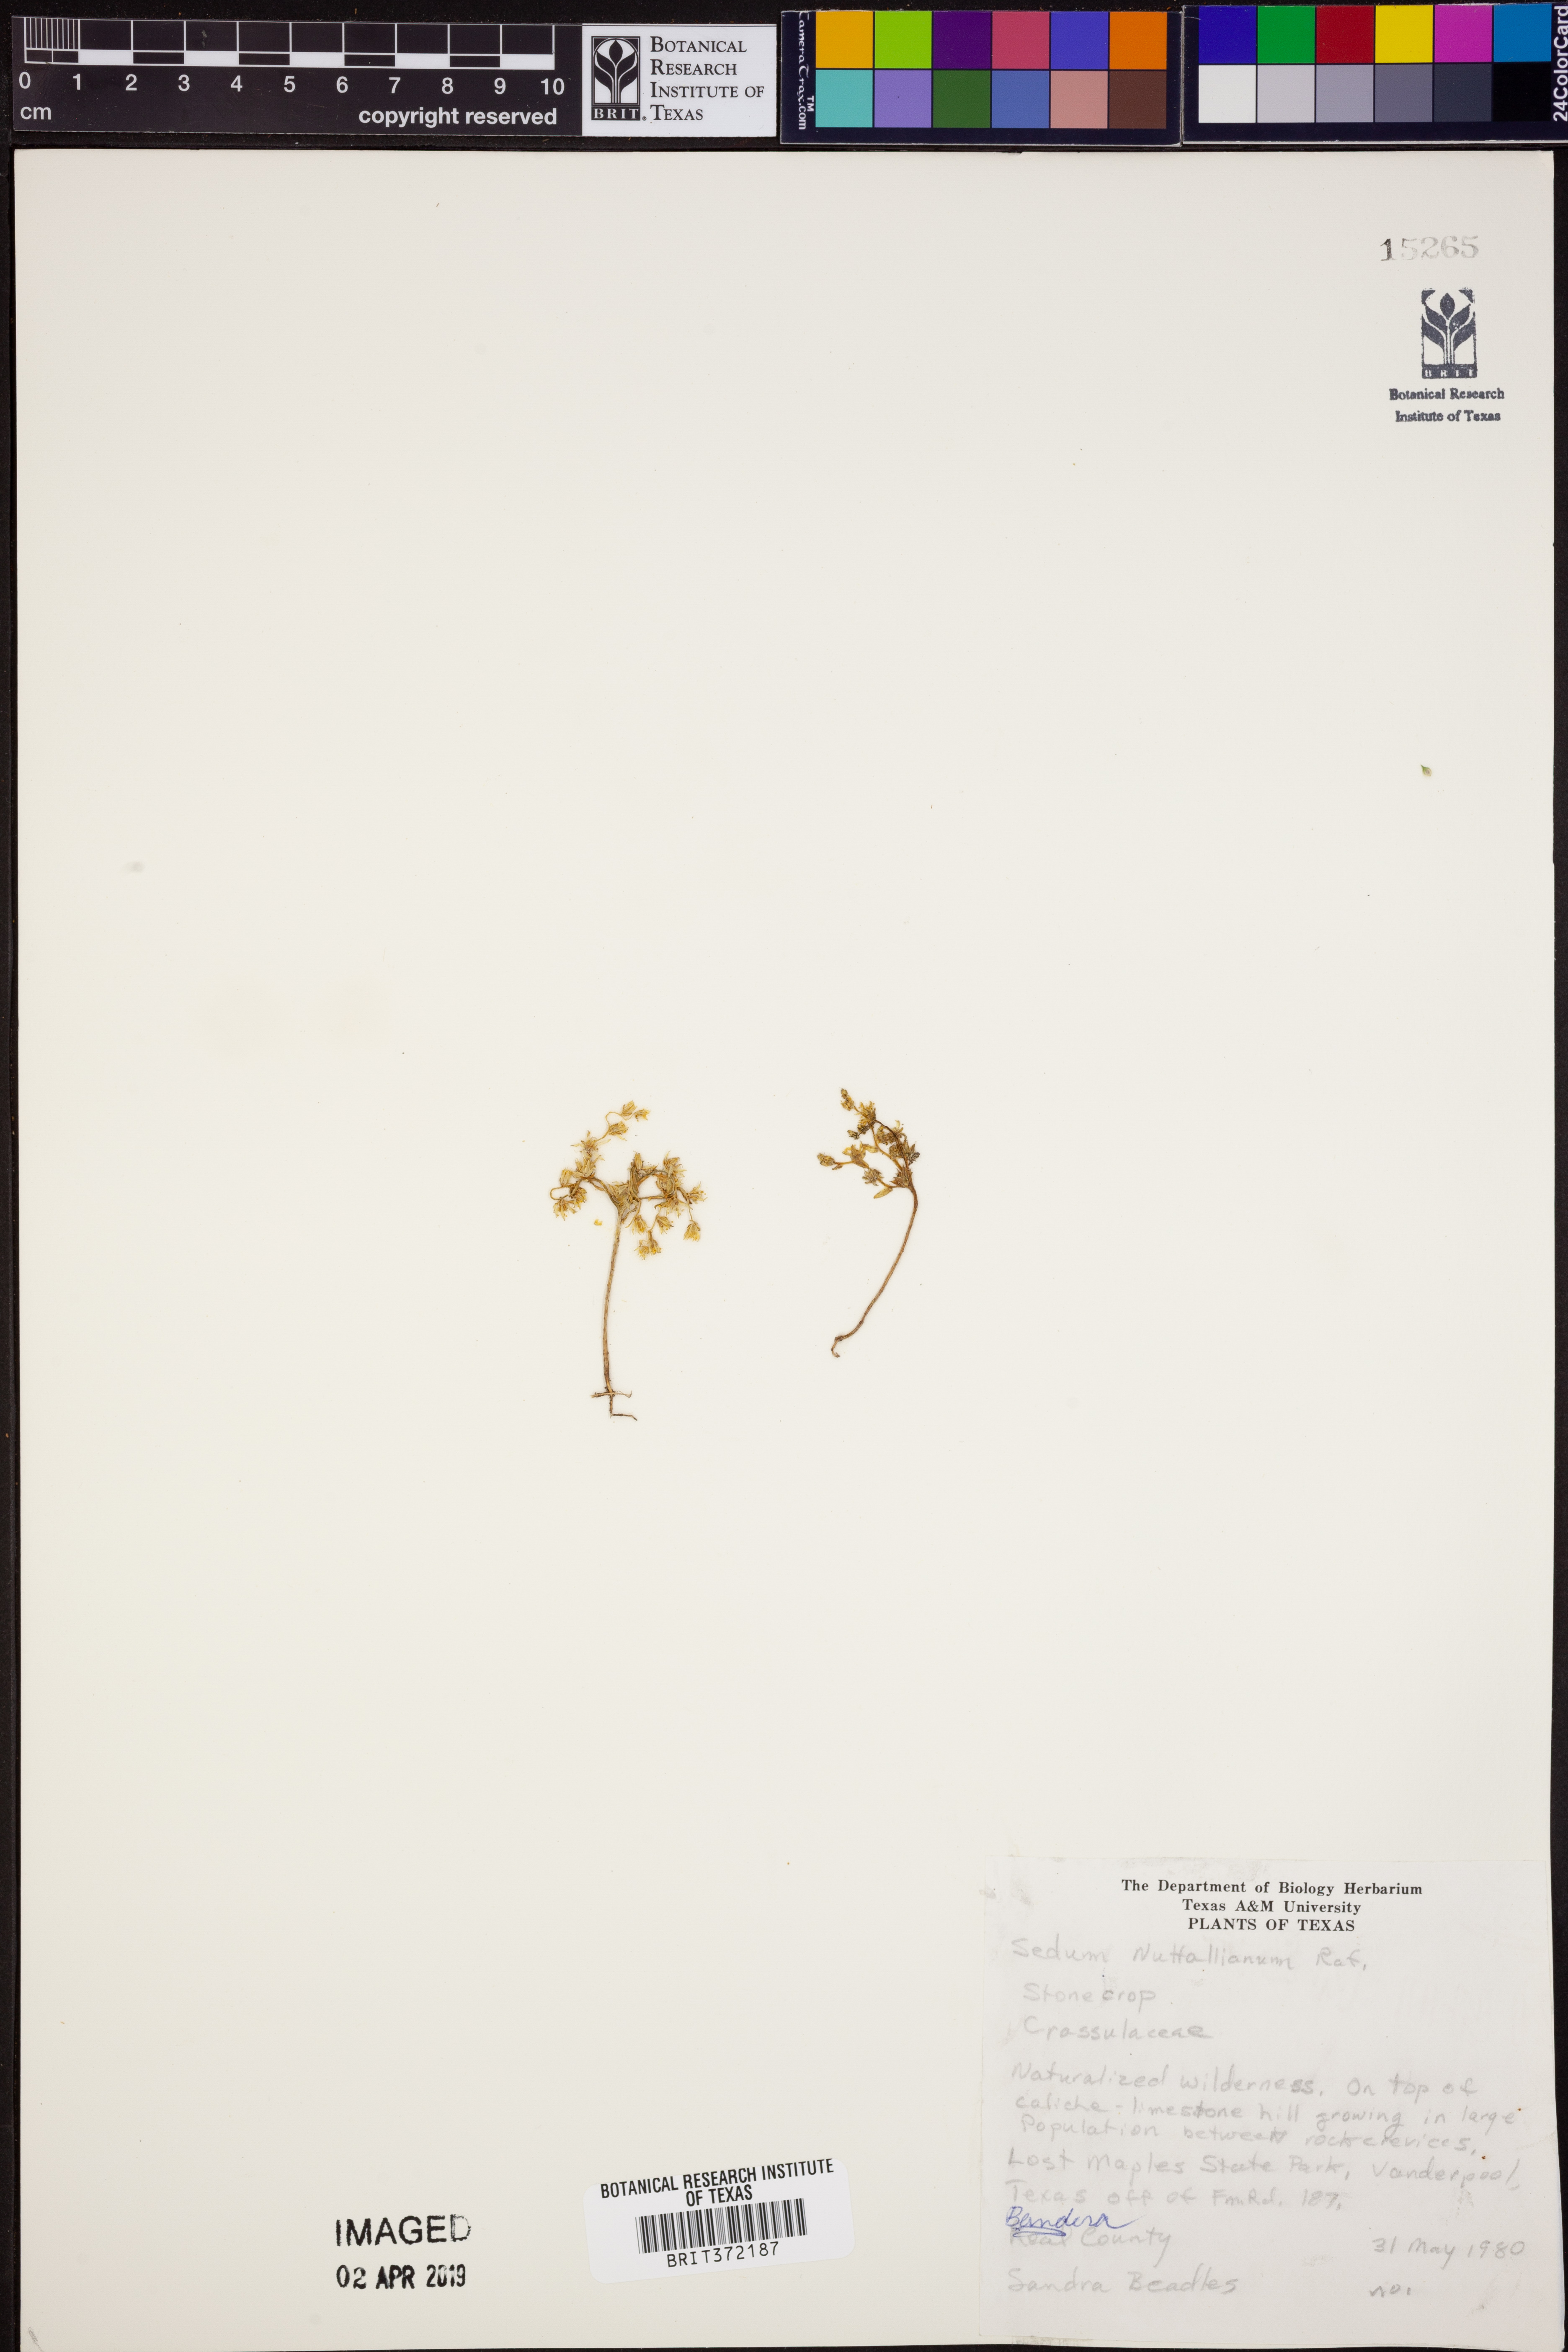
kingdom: Plantae
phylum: Tracheophyta
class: Magnoliopsida
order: Saxifragales
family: Crassulaceae
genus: Sedum
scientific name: Sedum nuttallii
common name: Yellow stonecrop
